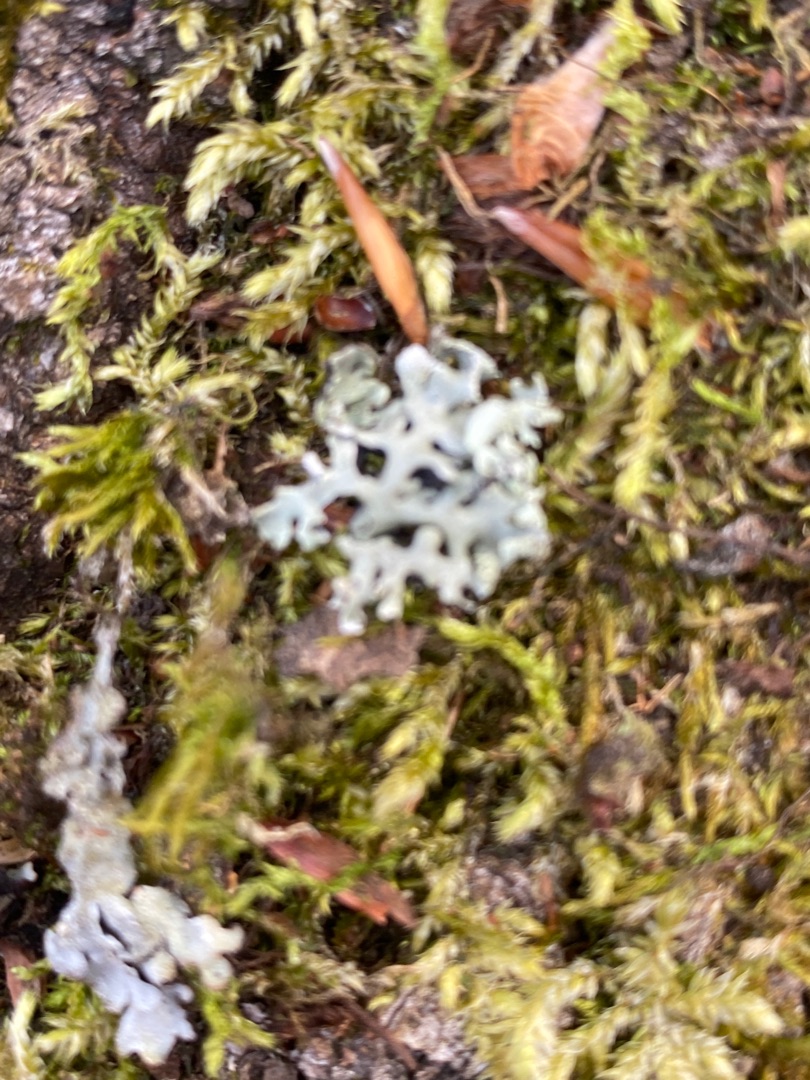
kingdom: Fungi
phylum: Ascomycota
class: Lecanoromycetes
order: Lecanorales
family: Parmeliaceae
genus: Hypogymnia
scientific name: Hypogymnia physodes
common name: Almindelig kvistlav
